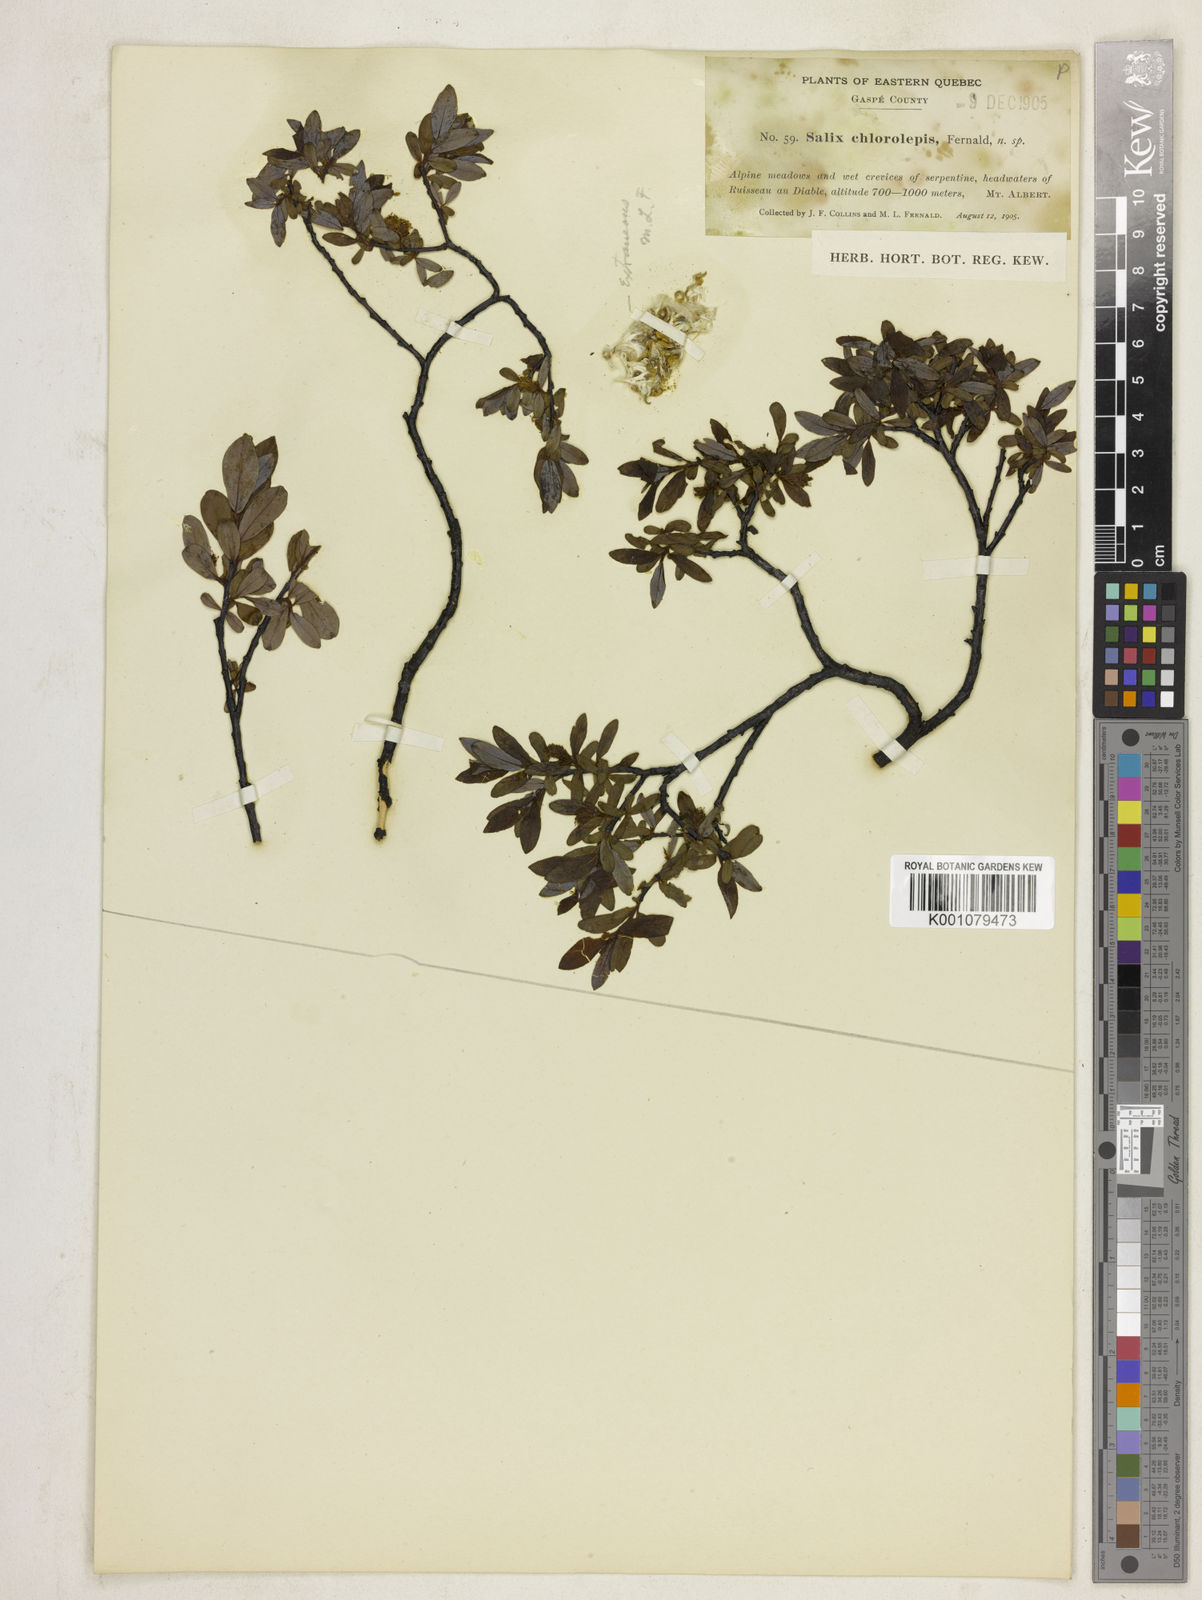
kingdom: Plantae
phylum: Tracheophyta
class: Magnoliopsida
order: Malpighiales
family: Salicaceae
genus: Salix
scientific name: Salix chlorolepis
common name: Green-bract willow
